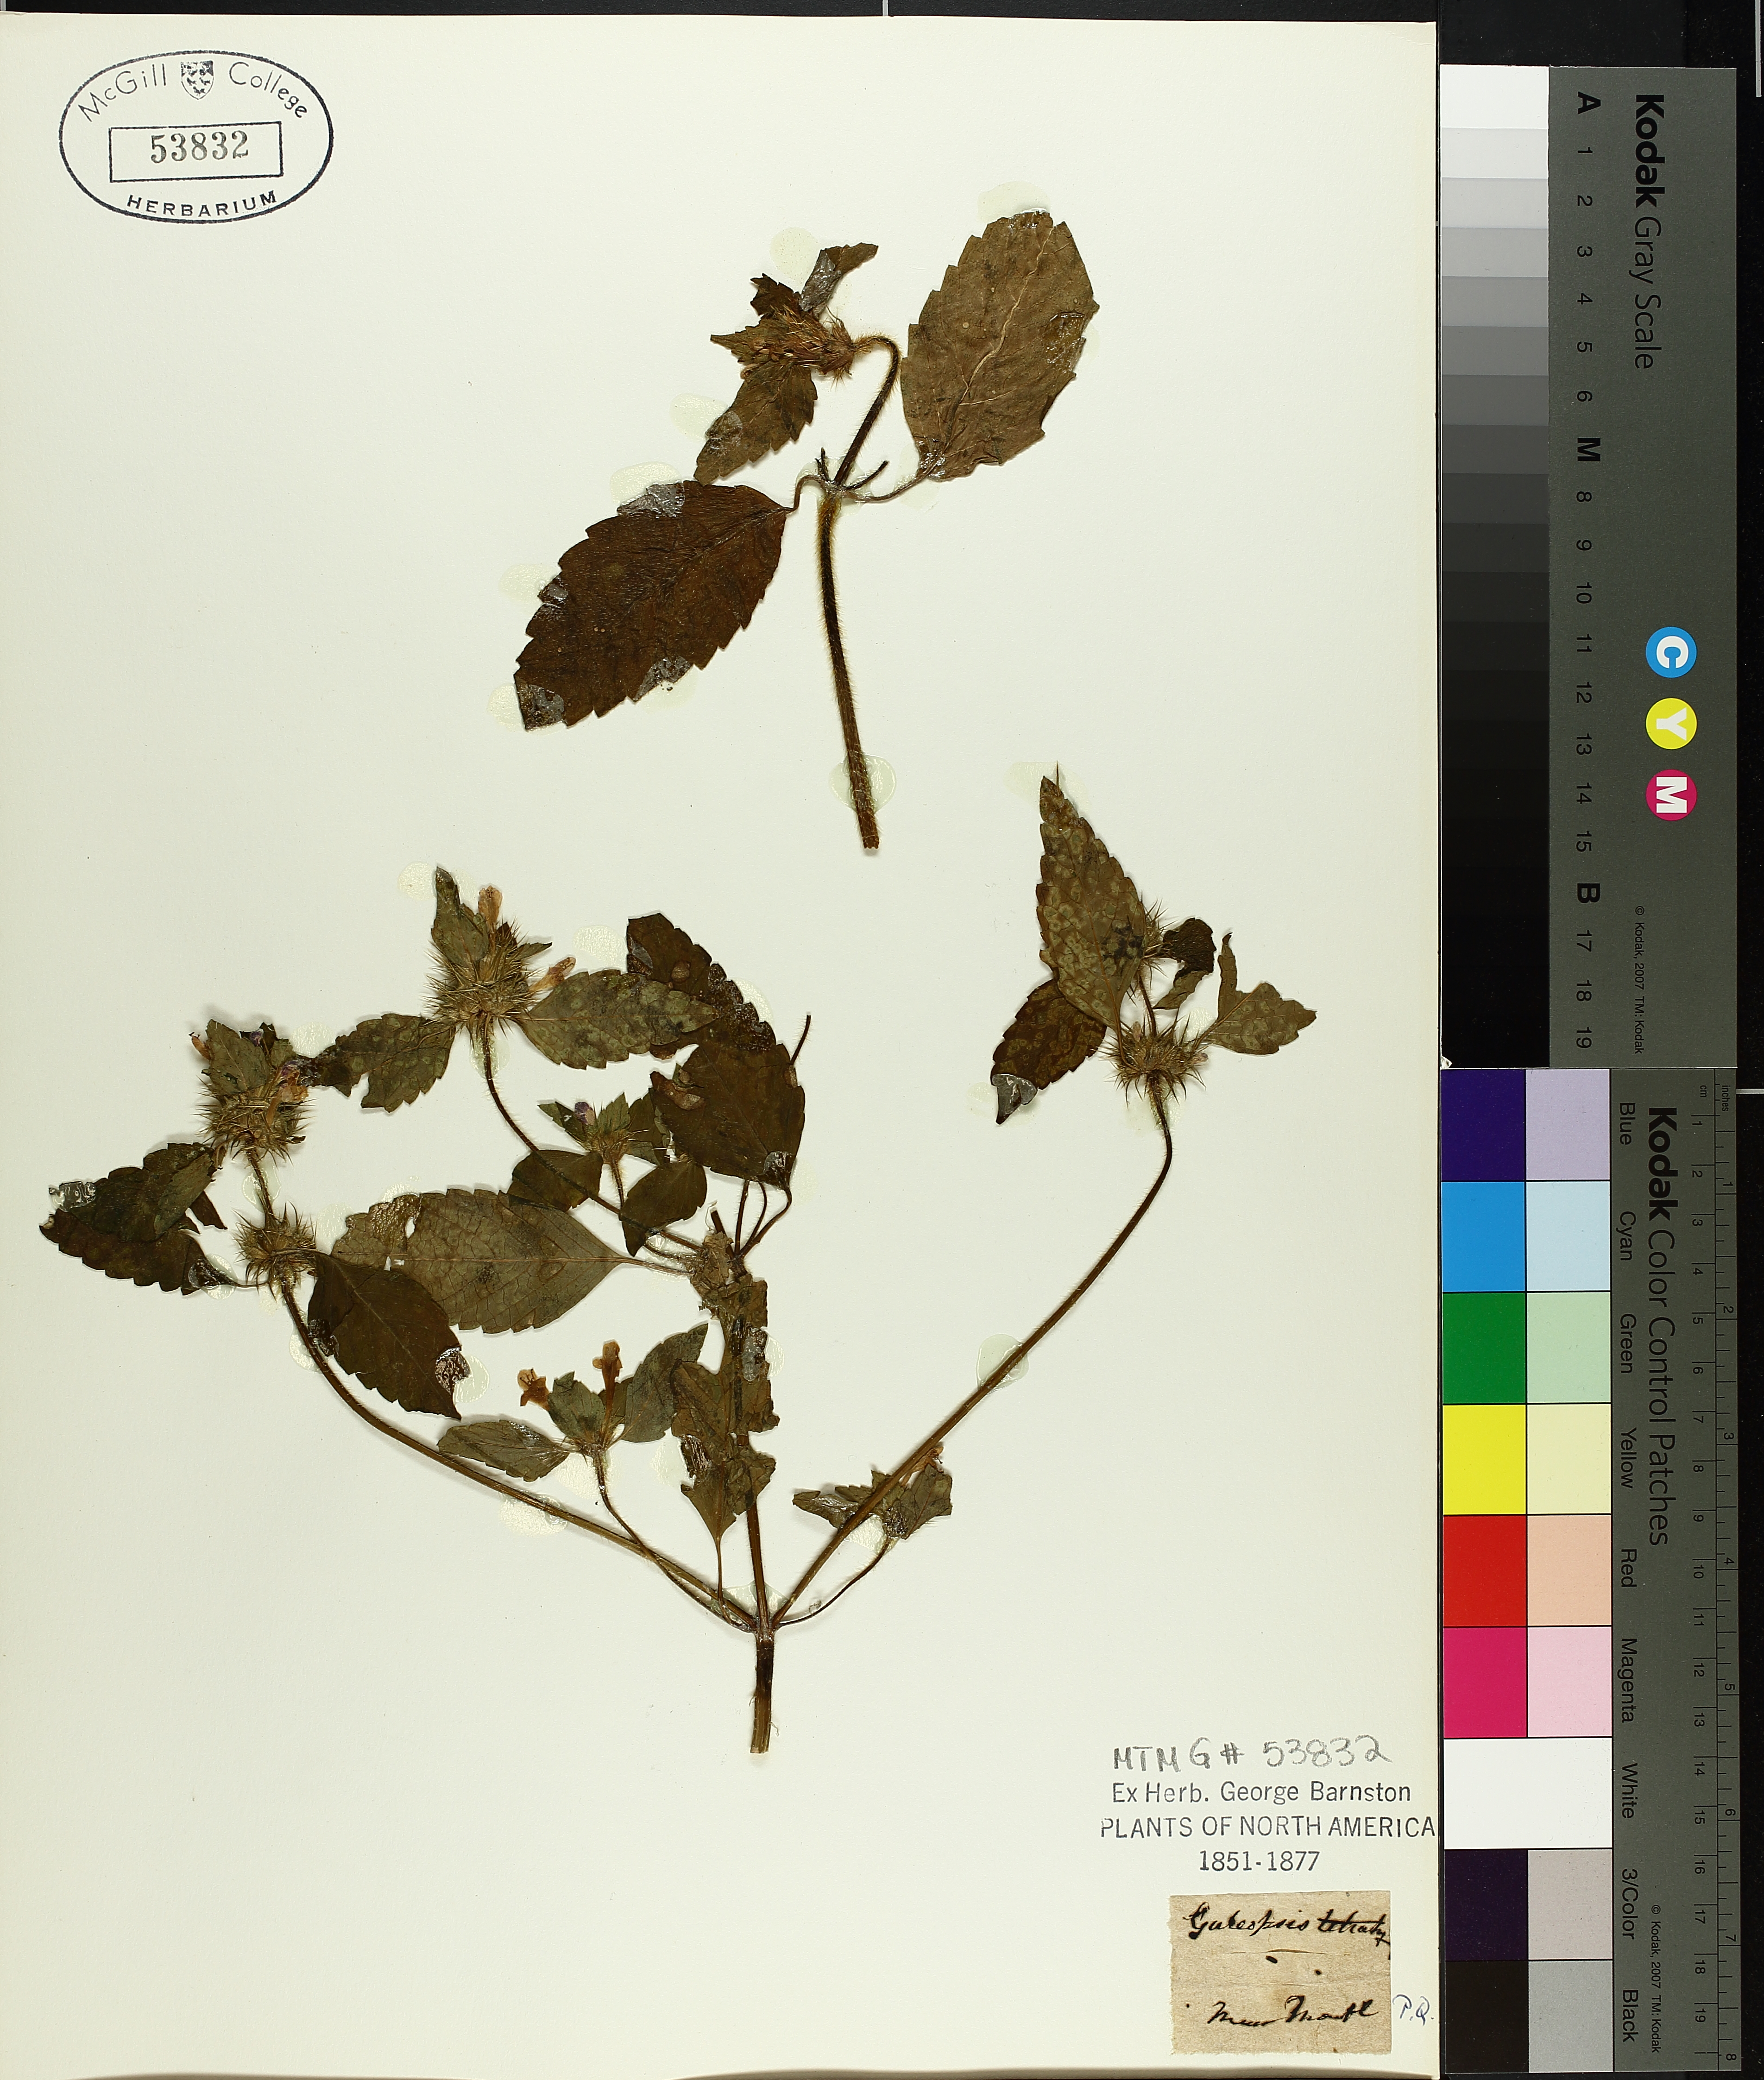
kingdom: Plantae
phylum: Tracheophyta
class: Magnoliopsida
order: Lamiales
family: Lamiaceae
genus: Galeopsis
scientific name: Galeopsis tetrahit
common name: Common hemp-nettle
